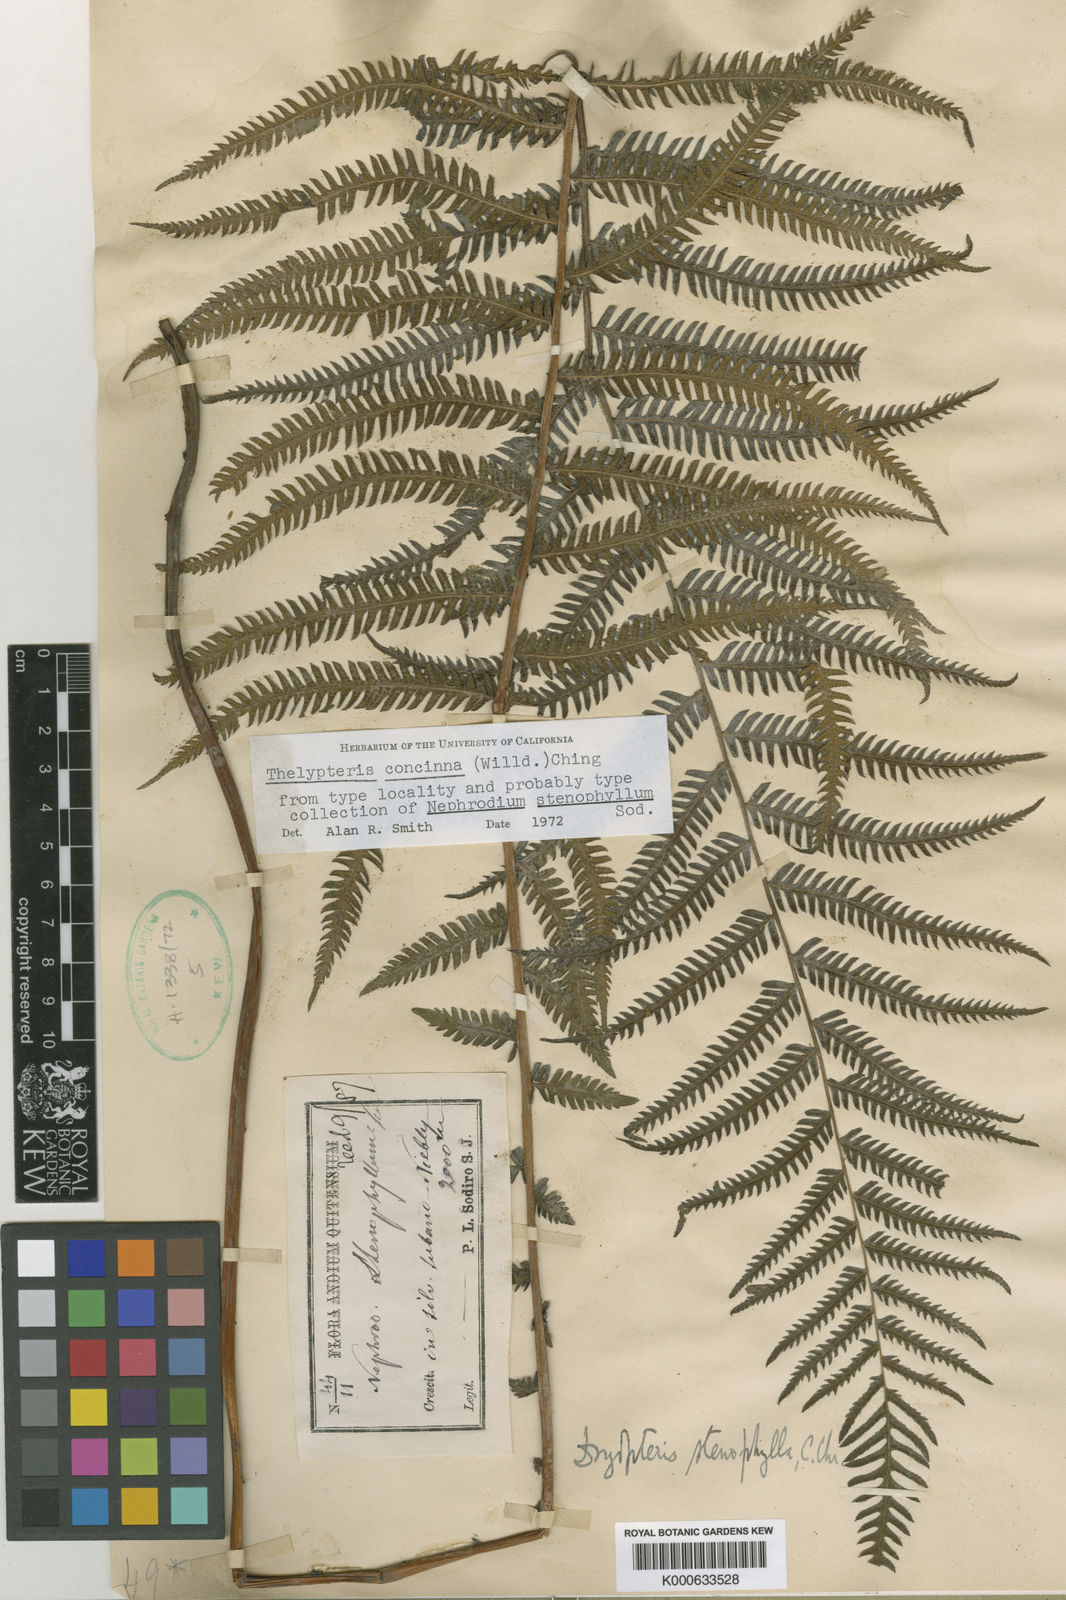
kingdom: Plantae
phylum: Tracheophyta
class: Polypodiopsida
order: Polypodiales
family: Thelypteridaceae
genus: Amauropelta
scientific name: Amauropelta concinna
